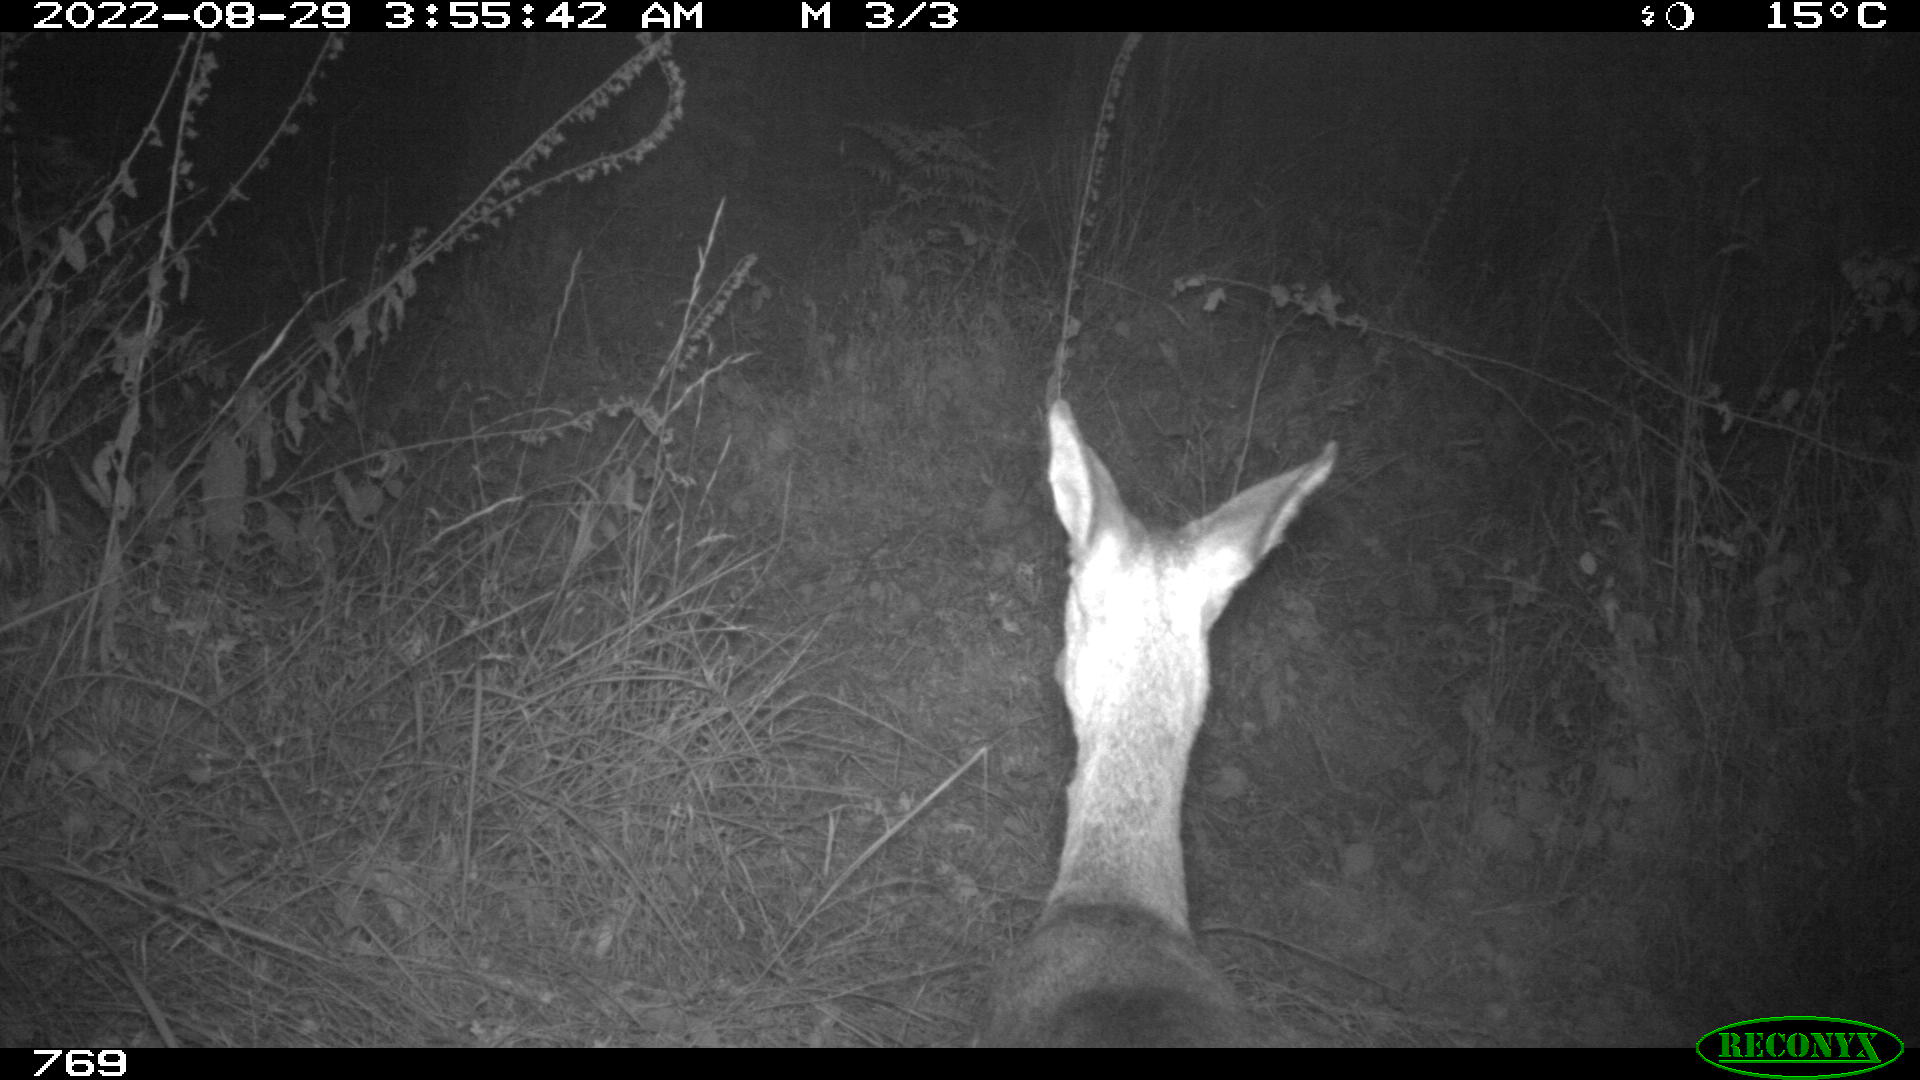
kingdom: Animalia
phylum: Chordata
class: Mammalia
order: Artiodactyla
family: Cervidae
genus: Capreolus
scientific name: Capreolus capreolus
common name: Western roe deer
